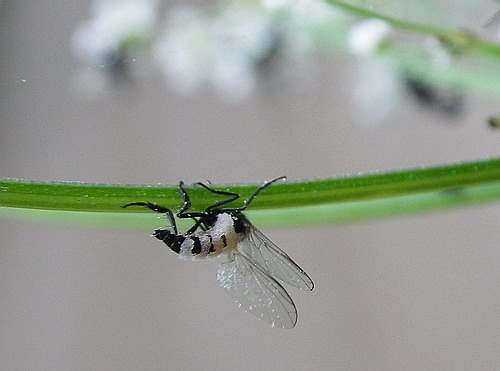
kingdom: Fungi
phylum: Entomophthoromycota
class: Entomophthoromycetes
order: Entomophthorales
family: Entomophthoraceae
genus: Entomophthora
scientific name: Entomophthora muscae
